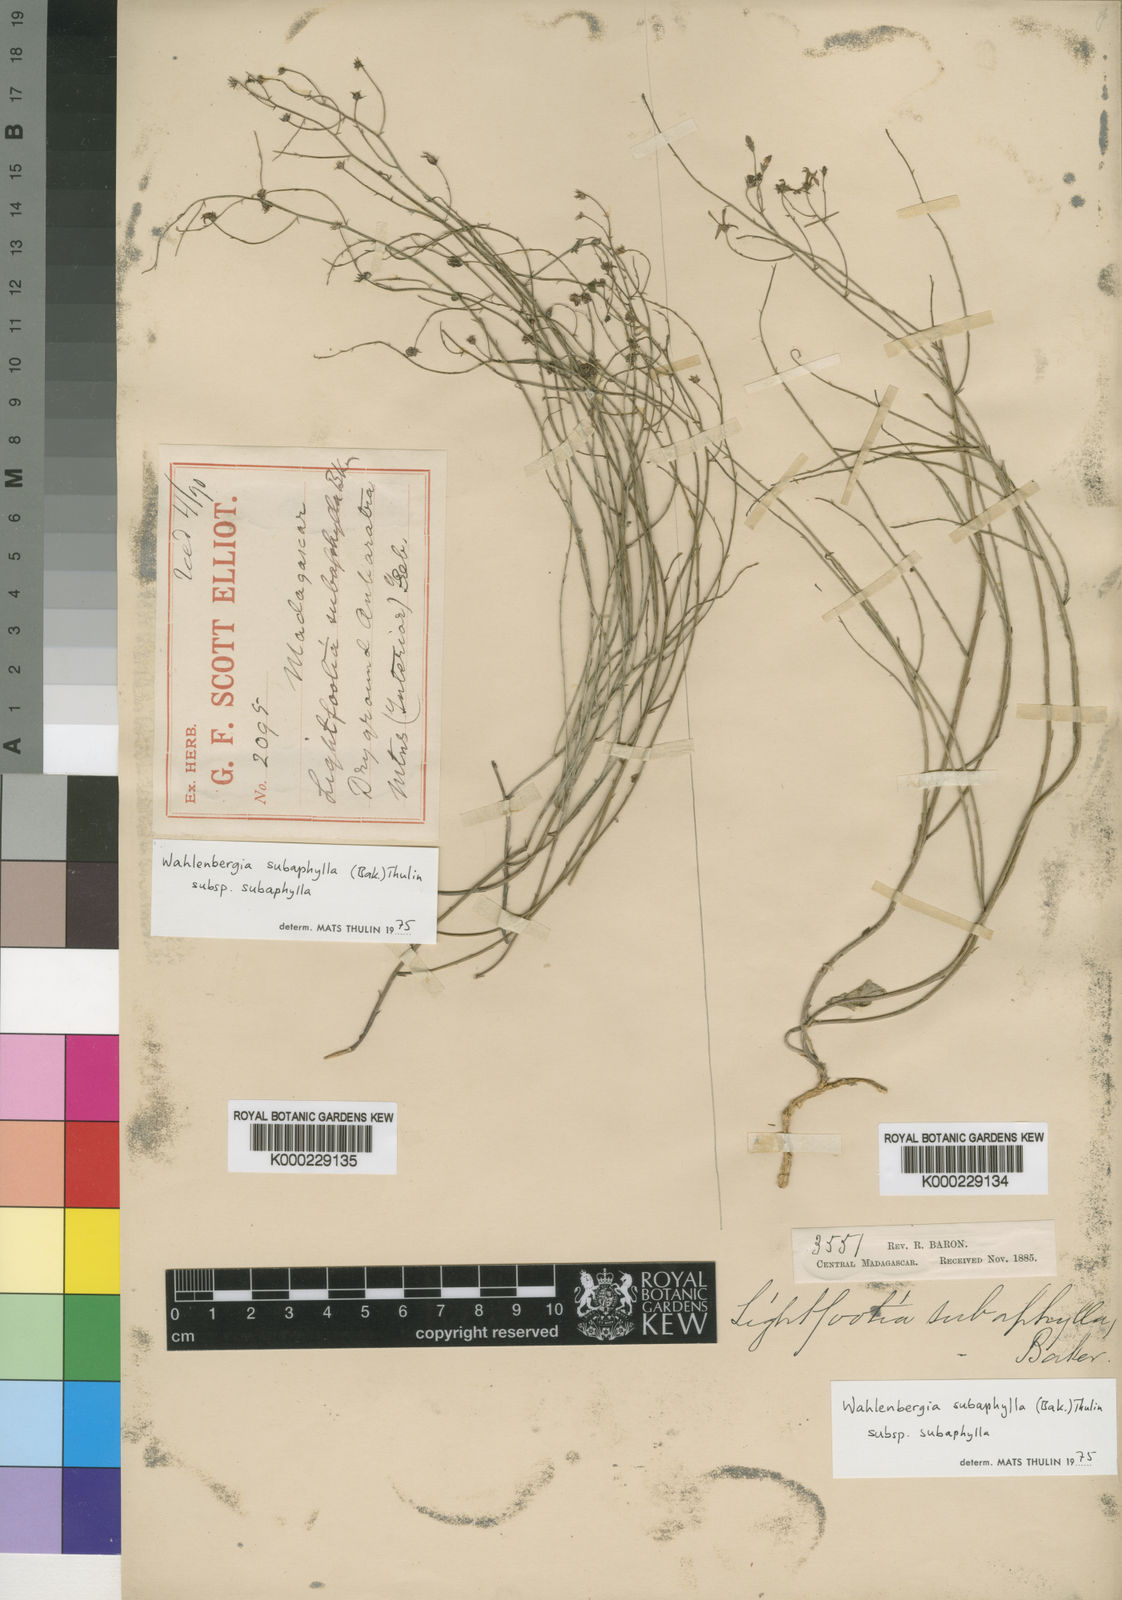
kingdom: Plantae
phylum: Tracheophyta
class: Magnoliopsida
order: Asterales
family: Campanulaceae
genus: Wahlenbergia
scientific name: Wahlenbergia subaphylla
